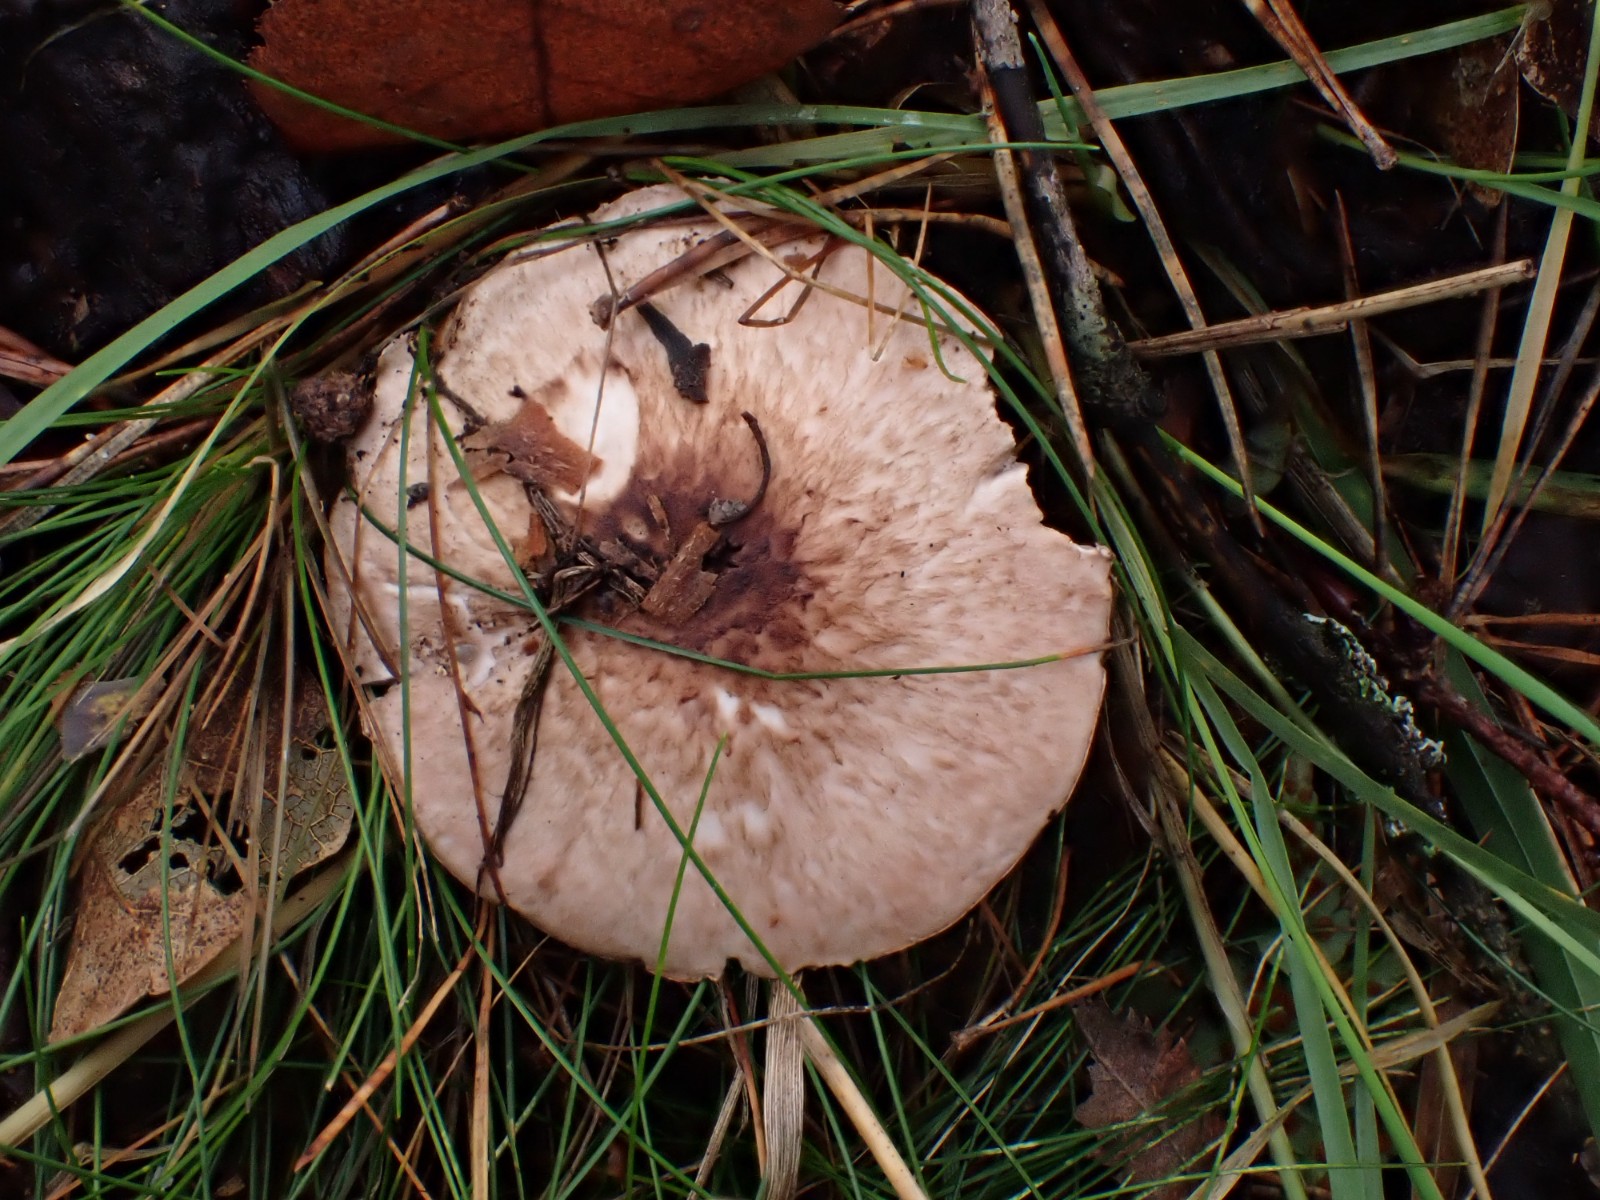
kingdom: Fungi
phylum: Basidiomycota
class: Agaricomycetes
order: Agaricales
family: Agaricaceae
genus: Agaricus
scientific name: Agaricus
